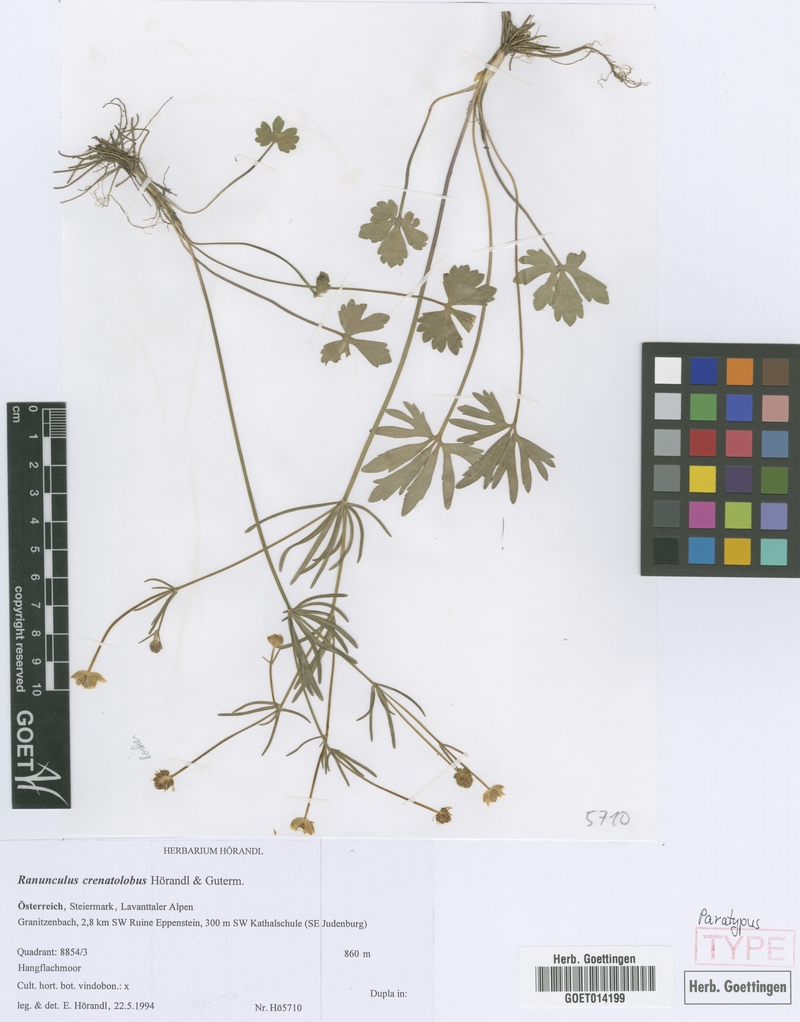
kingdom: Plantae
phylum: Tracheophyta
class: Magnoliopsida
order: Ranunculales
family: Ranunculaceae
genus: Ranunculus
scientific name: Ranunculus crenatolobus
